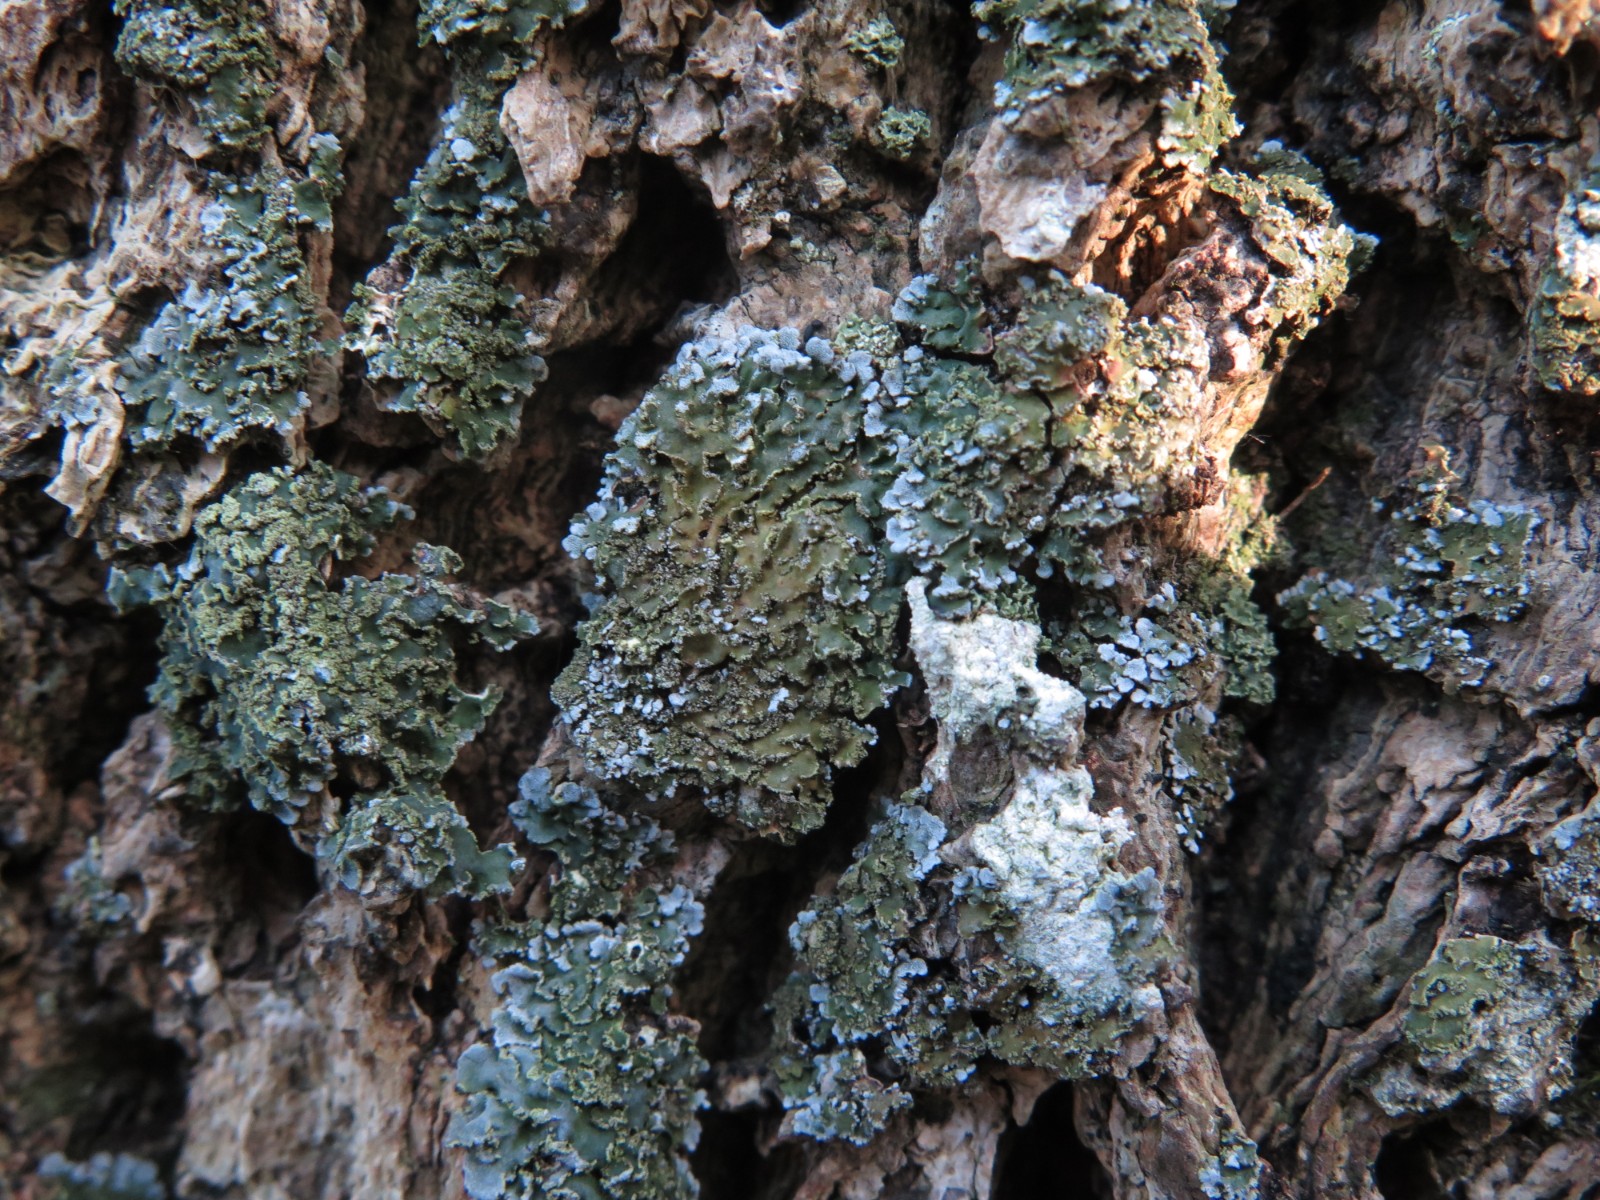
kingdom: Fungi
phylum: Ascomycota
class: Lecanoromycetes
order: Caliciales
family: Physciaceae
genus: Physconia
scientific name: Physconia perisidiosa
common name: liden dugrosetlav
